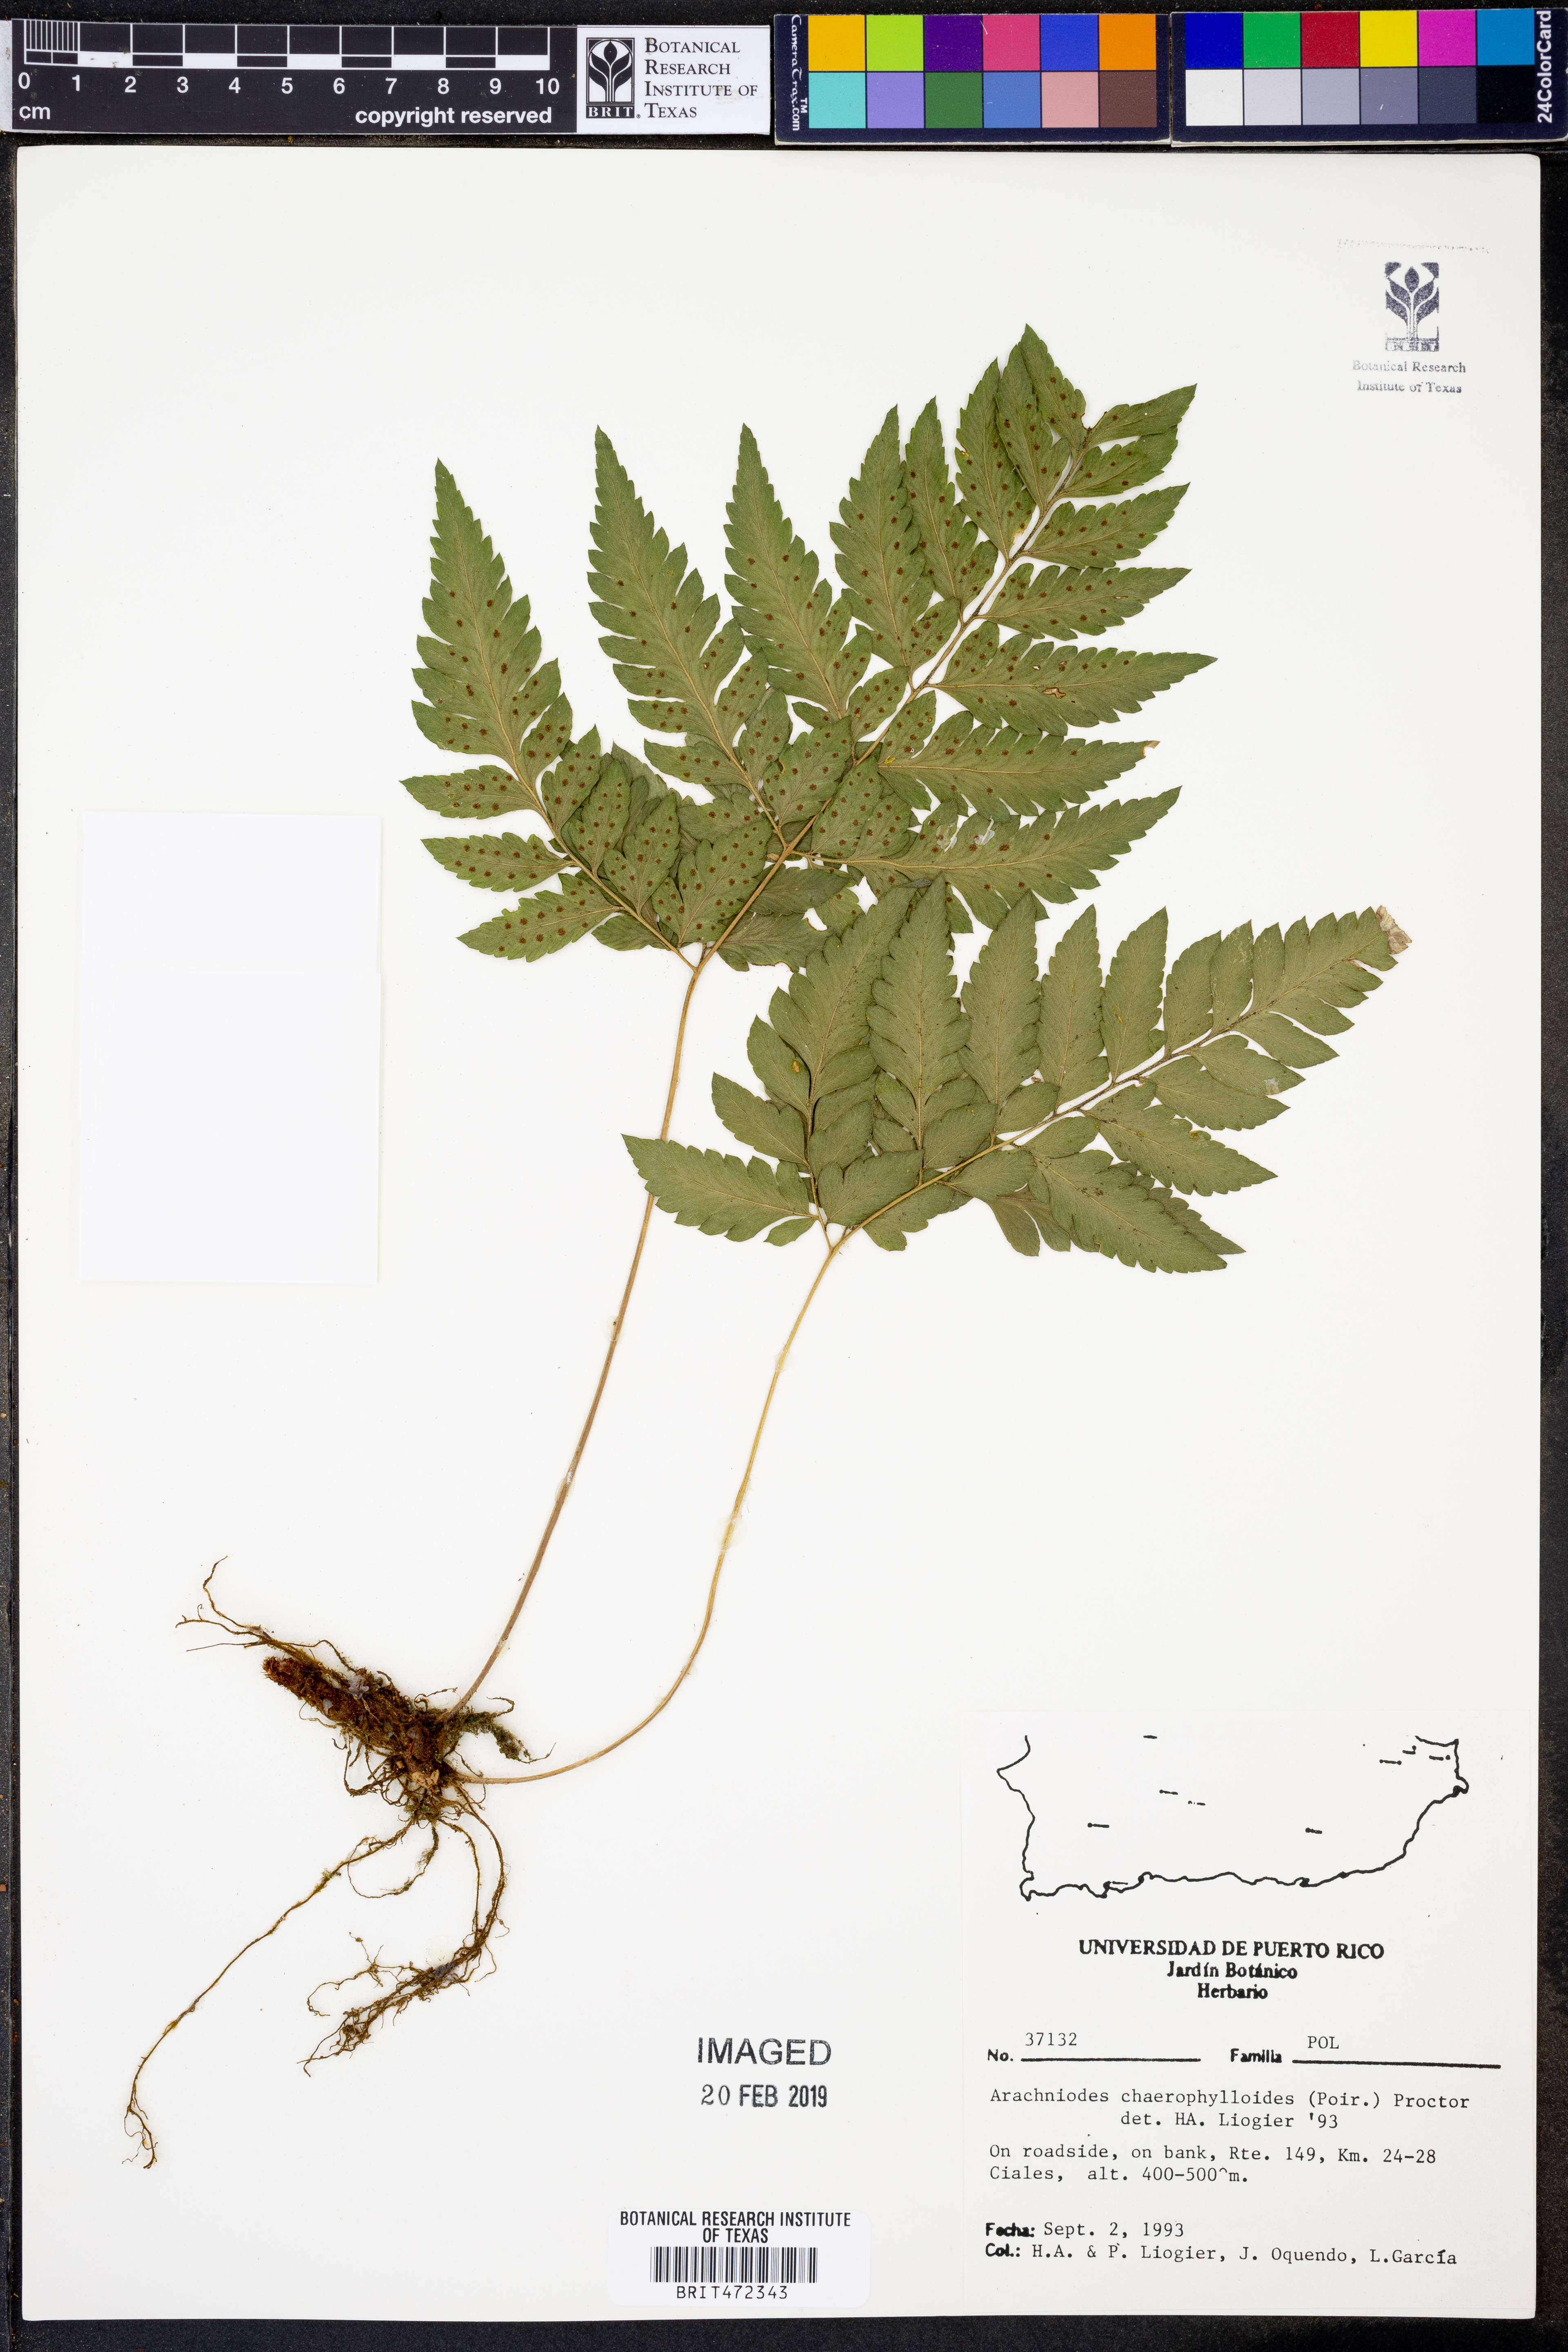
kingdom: Plantae
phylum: Tracheophyta
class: Polypodiopsida
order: Polypodiales
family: Dryopteridaceae
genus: Polystichopsis
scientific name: Polystichopsis chaerophylloides
